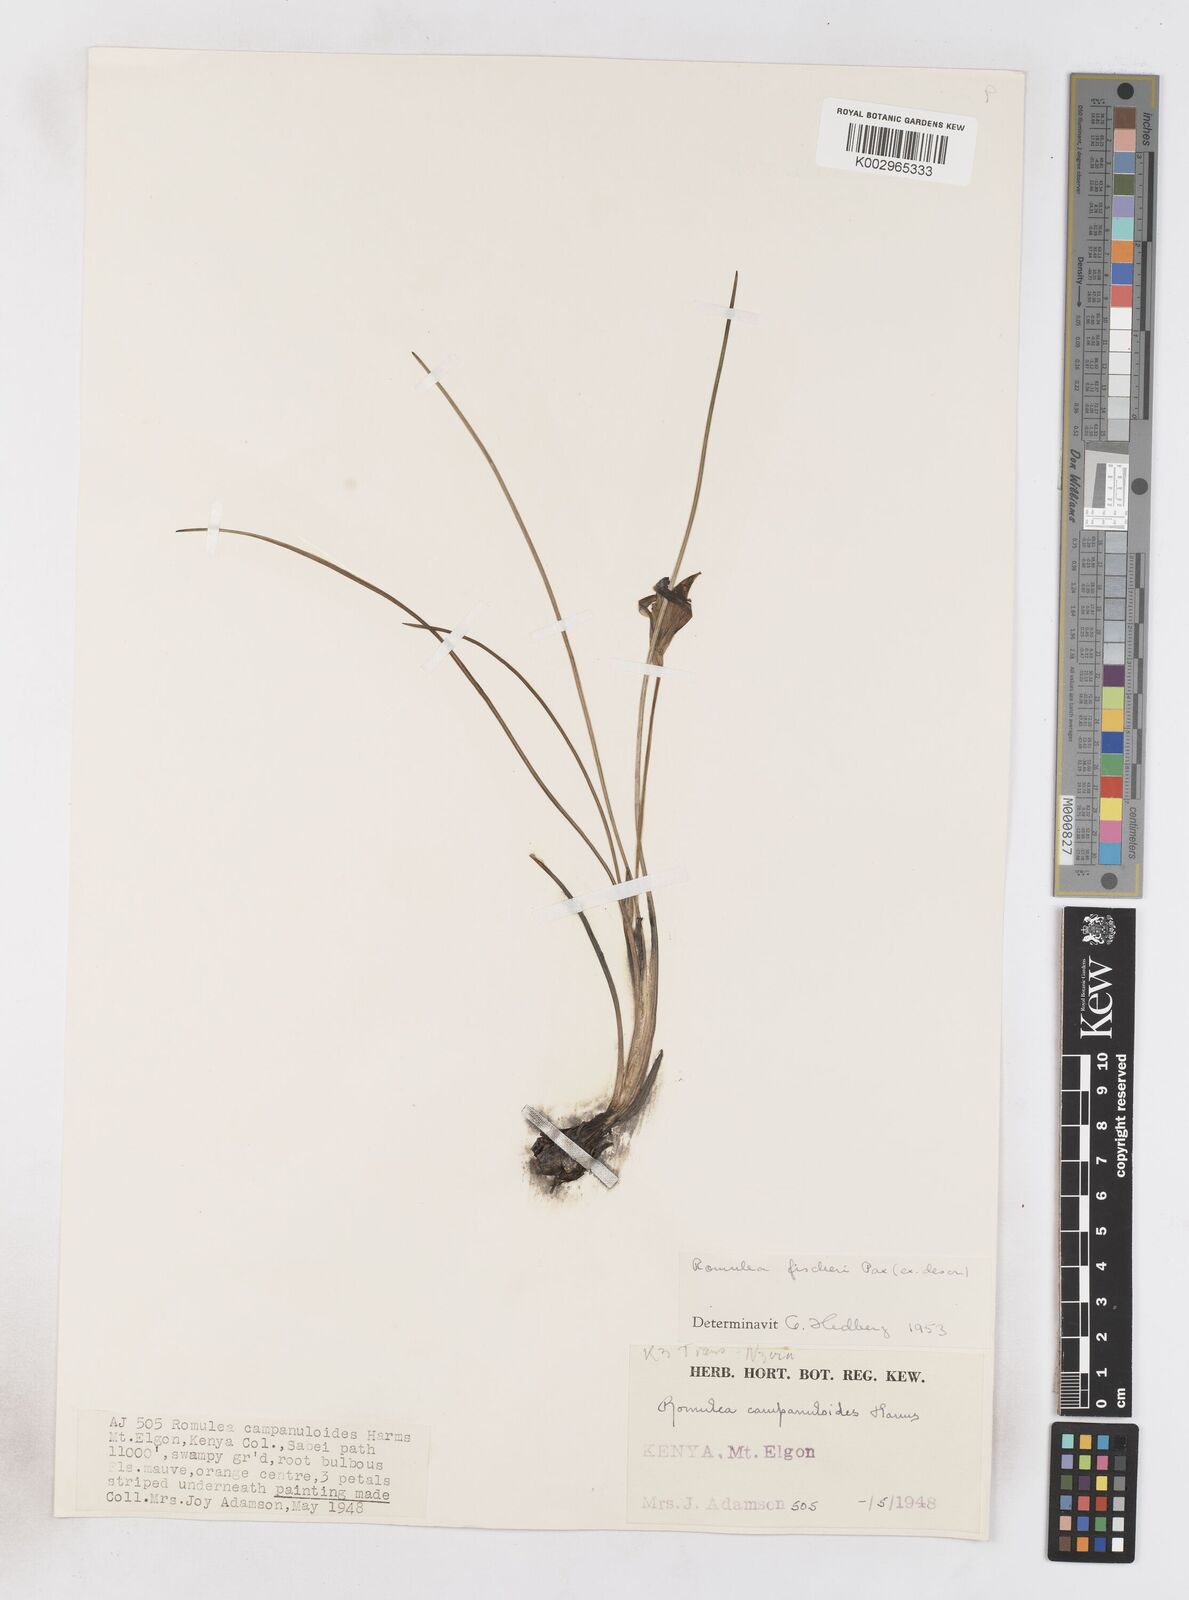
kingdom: Plantae
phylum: Tracheophyta
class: Liliopsida
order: Asparagales
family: Iridaceae
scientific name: Iridaceae
